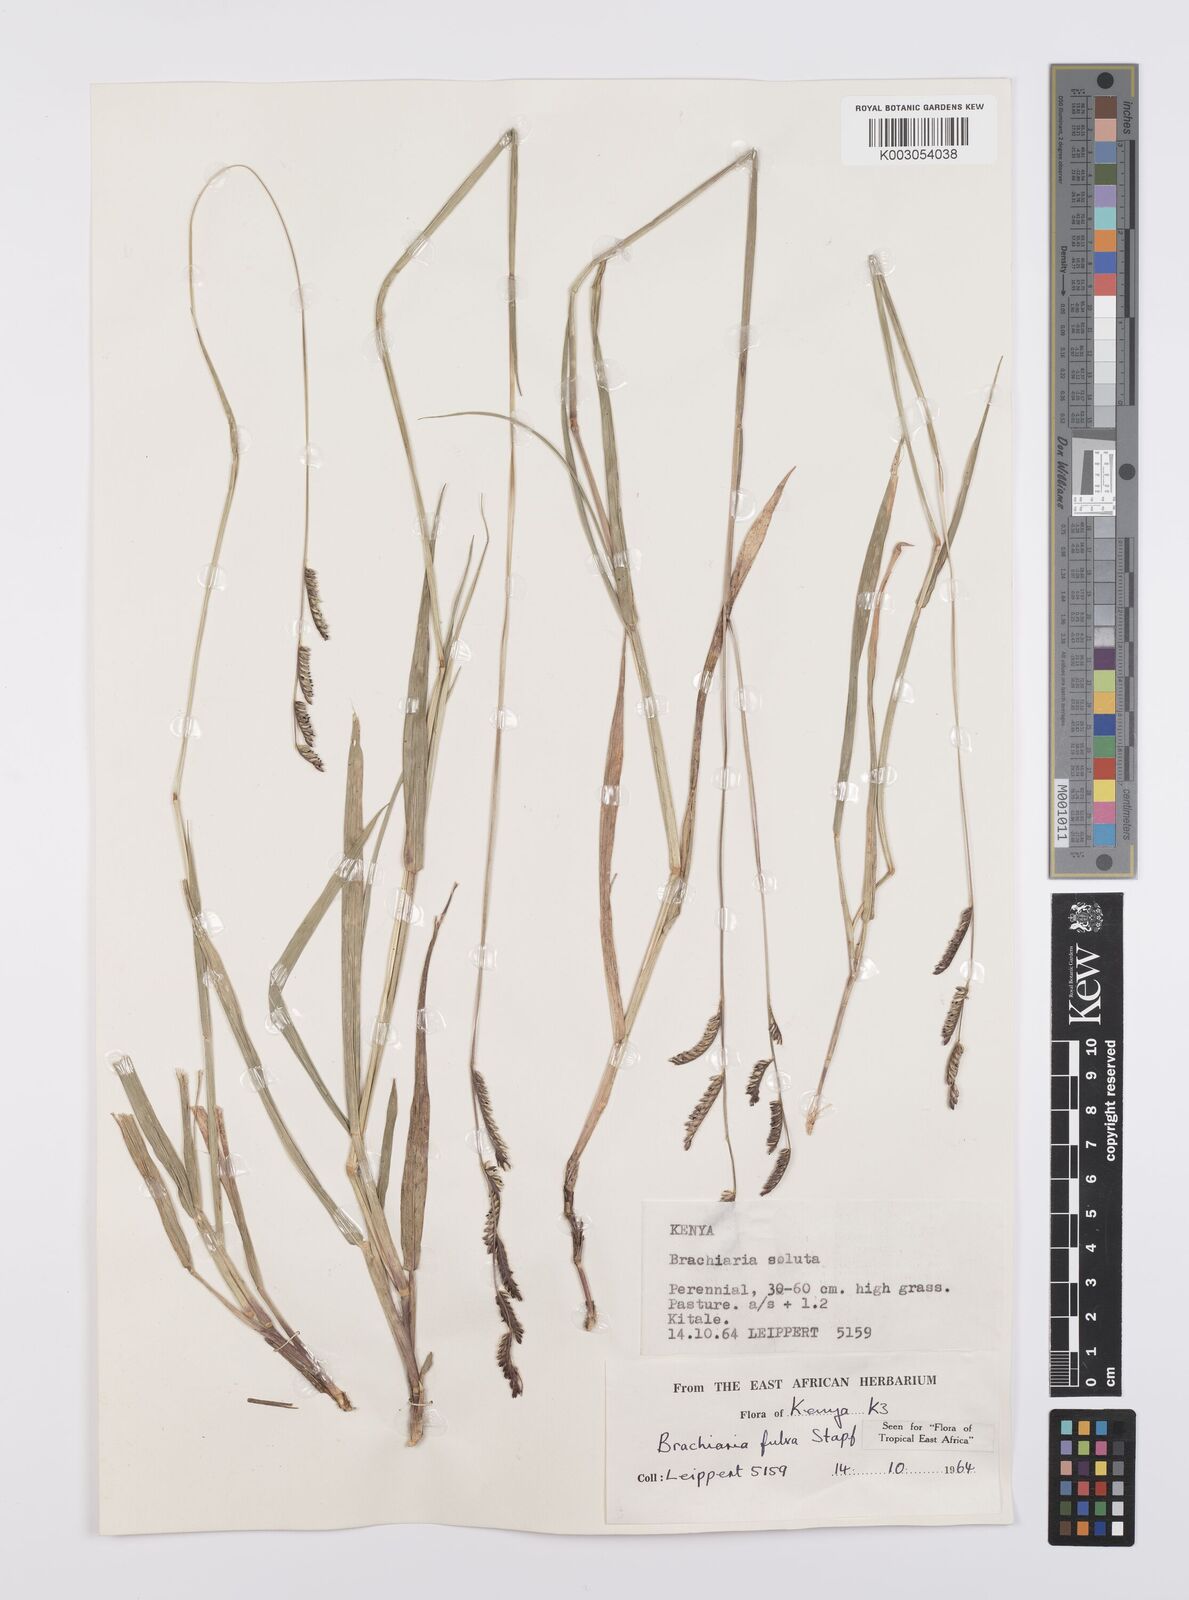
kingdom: Plantae
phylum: Tracheophyta
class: Liliopsida
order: Poales
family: Poaceae
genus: Urochloa
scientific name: Urochloa jubata
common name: Buffalograss
